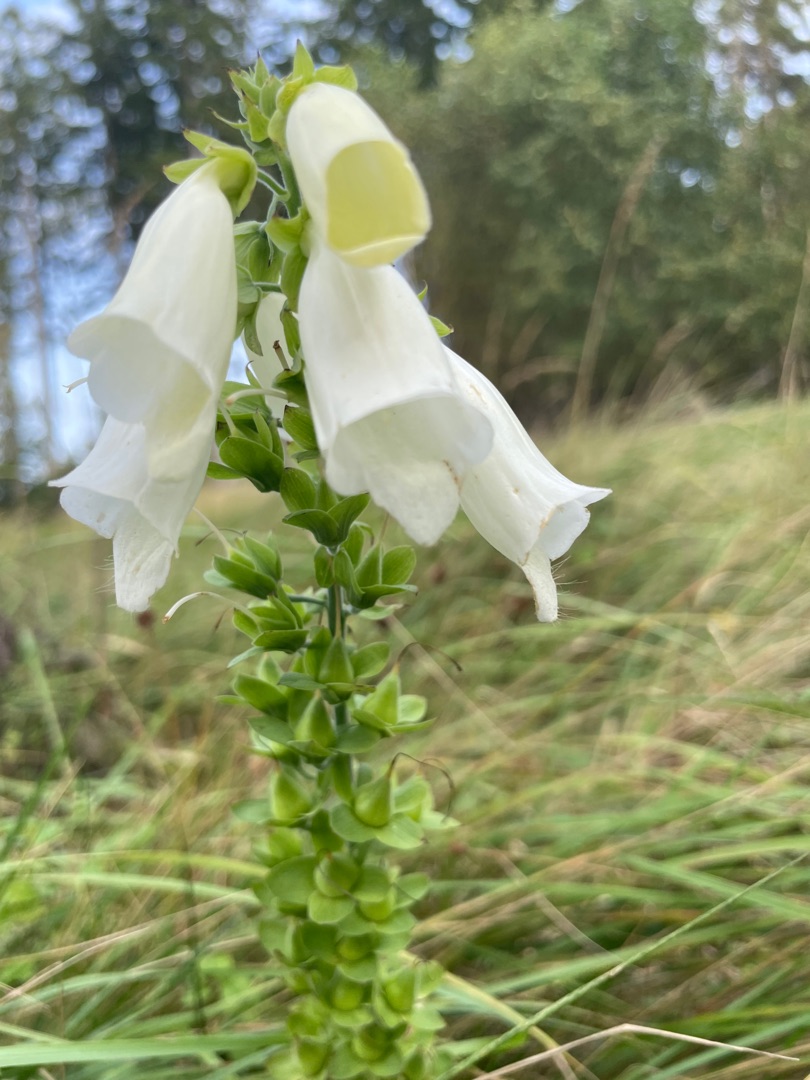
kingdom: Plantae
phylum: Tracheophyta
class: Magnoliopsida
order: Lamiales
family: Plantaginaceae
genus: Digitalis
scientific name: Digitalis purpurea
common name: Almindelig fingerbøl
